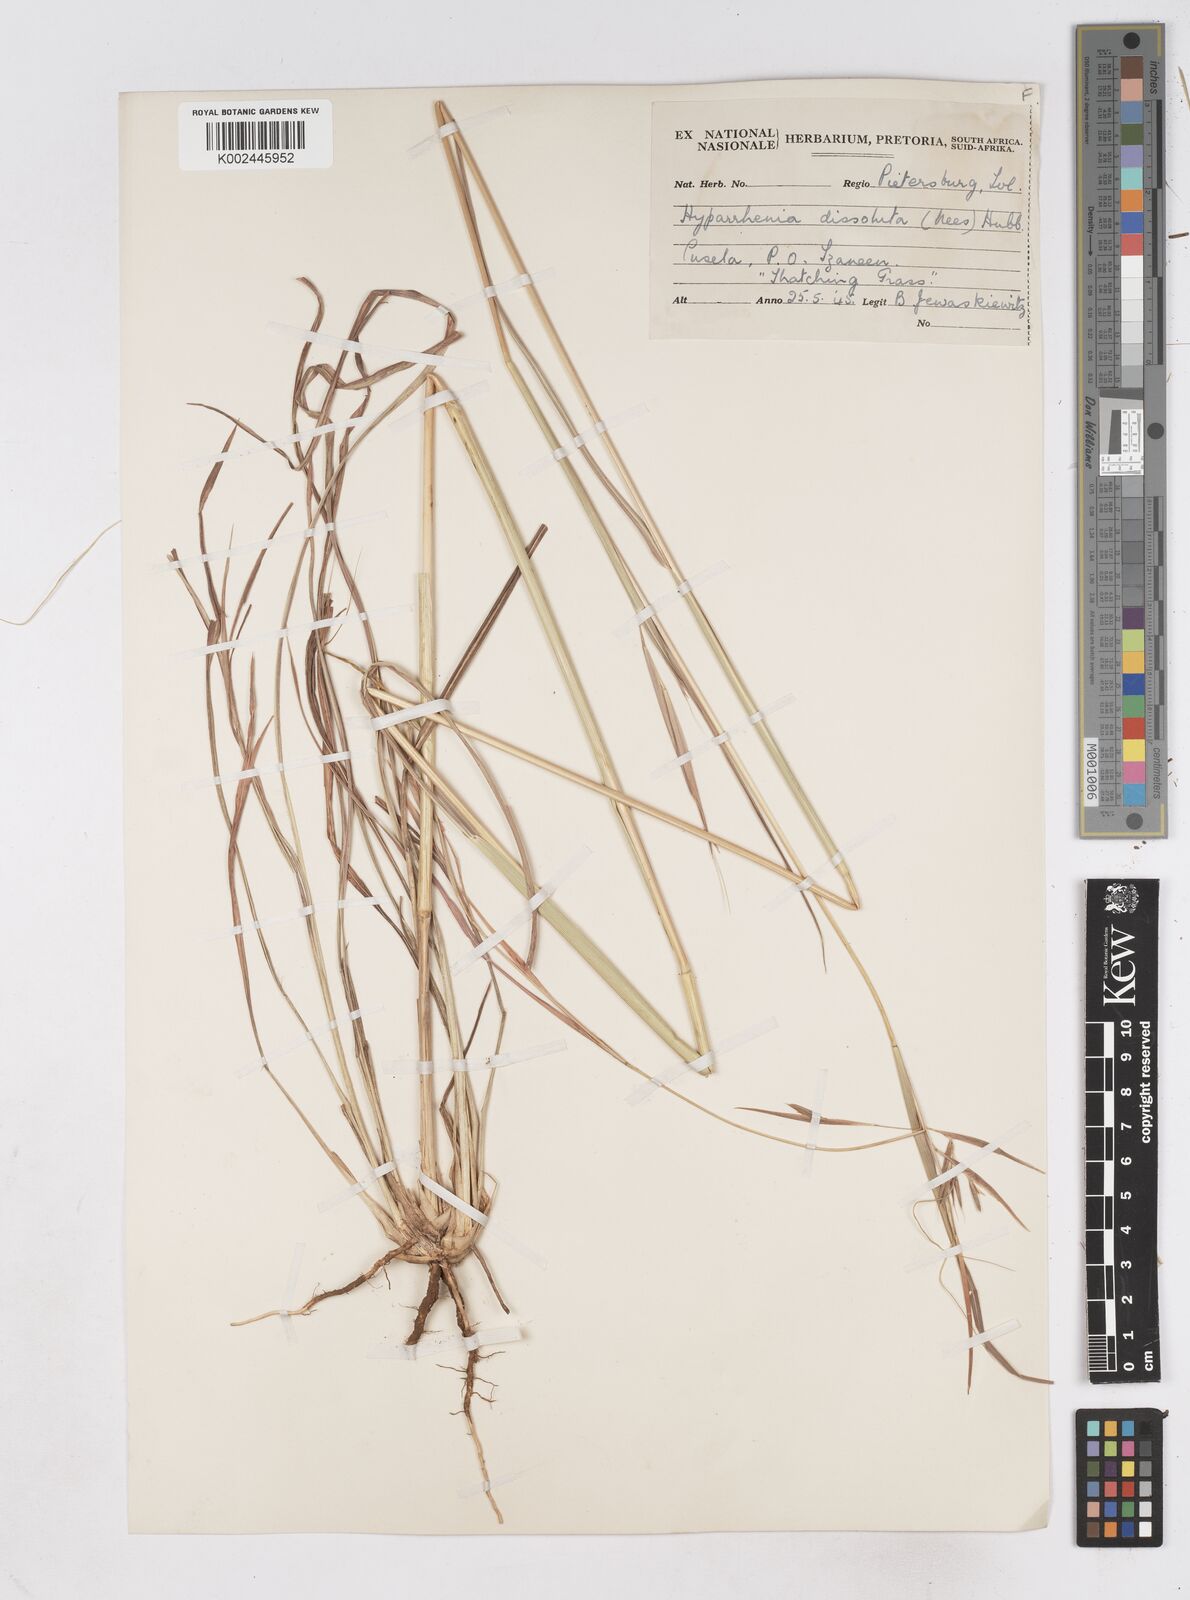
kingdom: Plantae
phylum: Tracheophyta
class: Liliopsida
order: Poales
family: Poaceae
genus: Hyperthelia
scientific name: Hyperthelia dissoluta
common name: Yellow thatching grass
